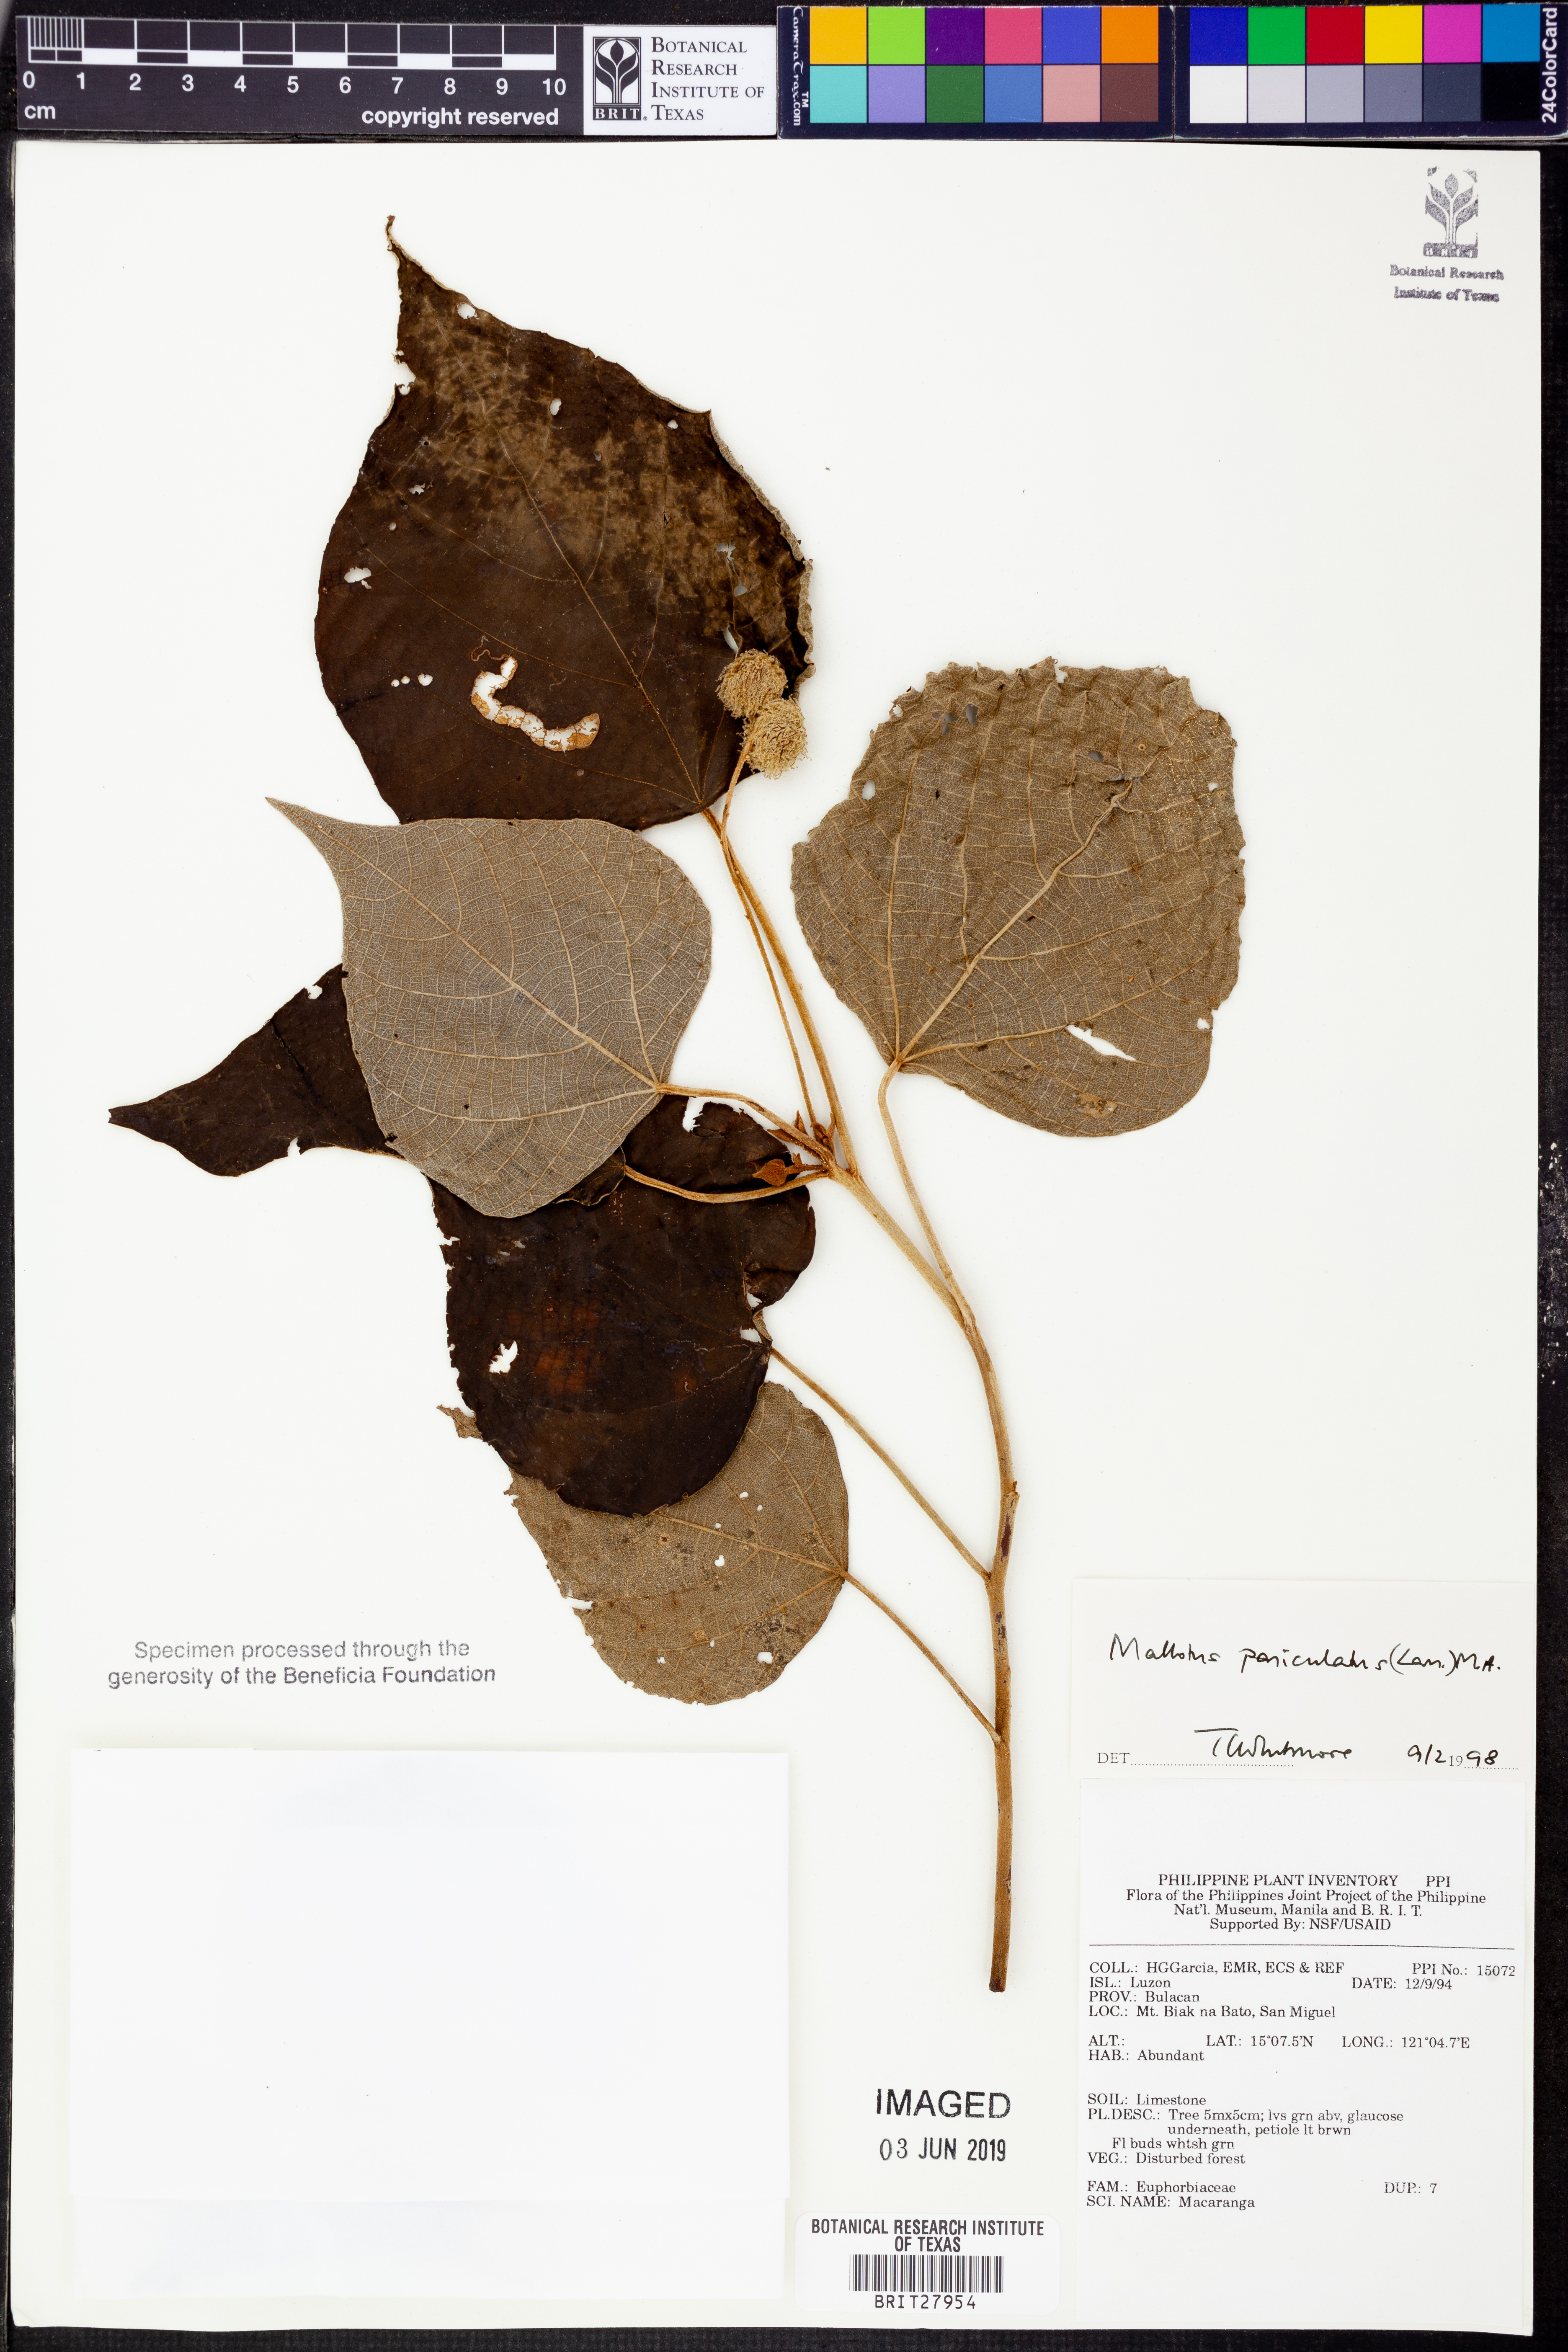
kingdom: Plantae
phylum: Tracheophyta
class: Magnoliopsida
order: Malpighiales
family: Euphorbiaceae
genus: Mallotus
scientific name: Mallotus paniculatus
